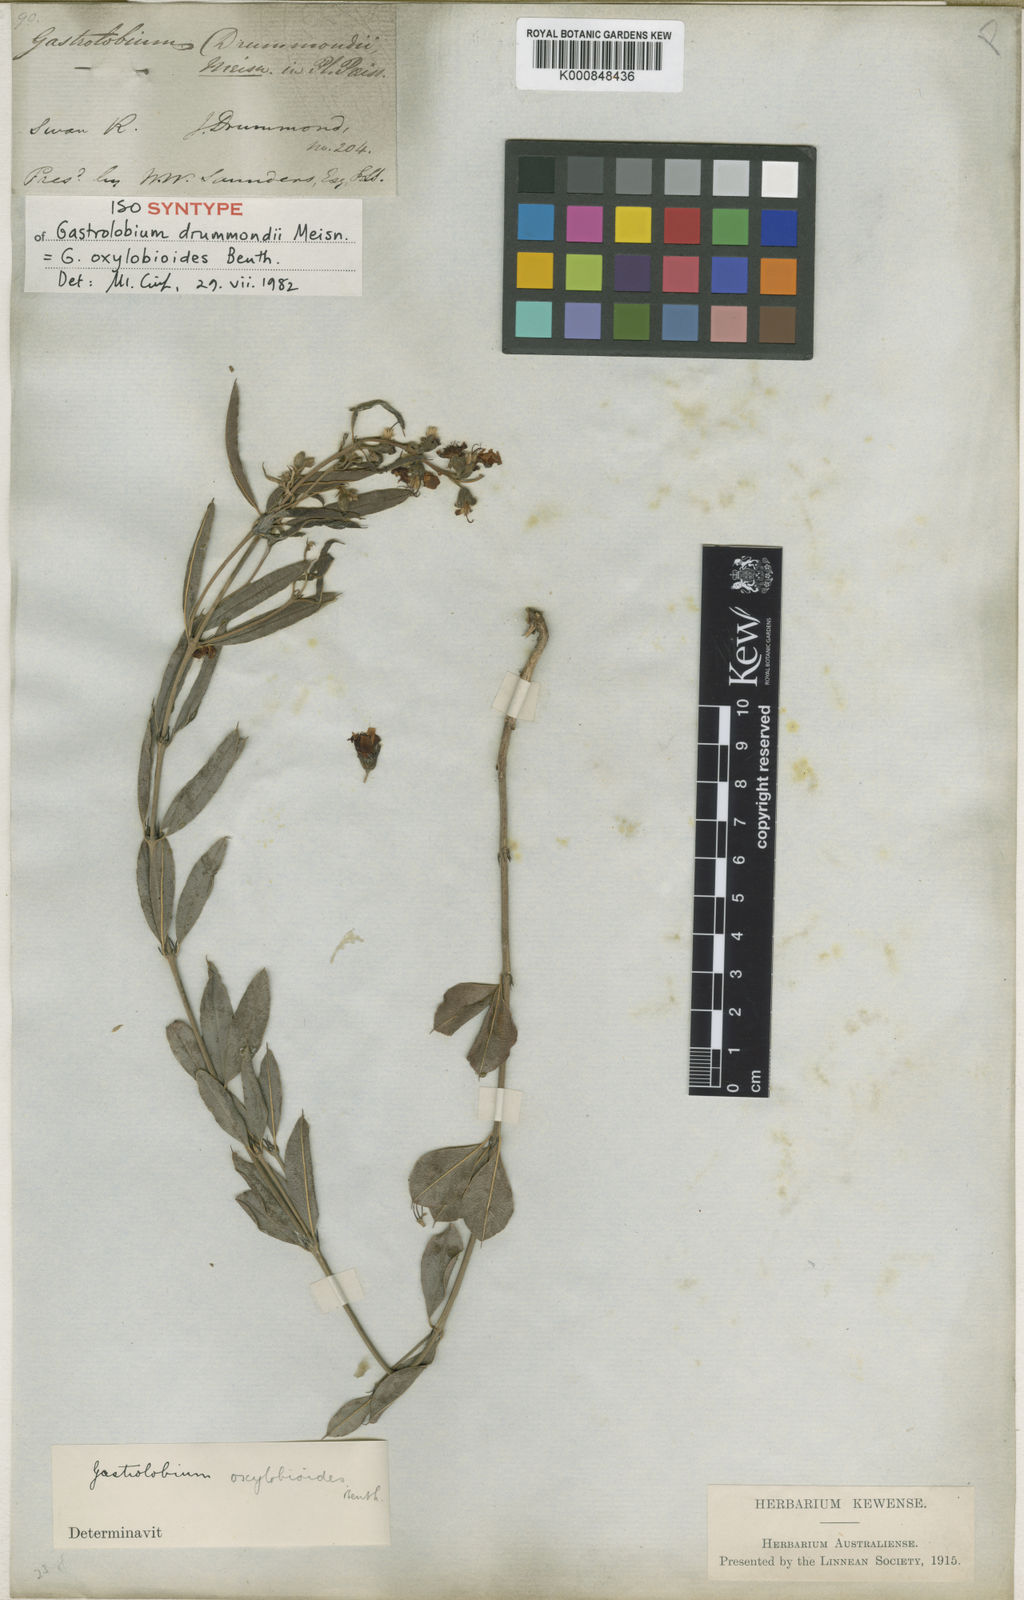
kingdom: Plantae
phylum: Tracheophyta
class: Magnoliopsida
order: Fabales
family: Fabaceae
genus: Gastrolobium
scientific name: Gastrolobium oxylobioides
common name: Champion bay poison
